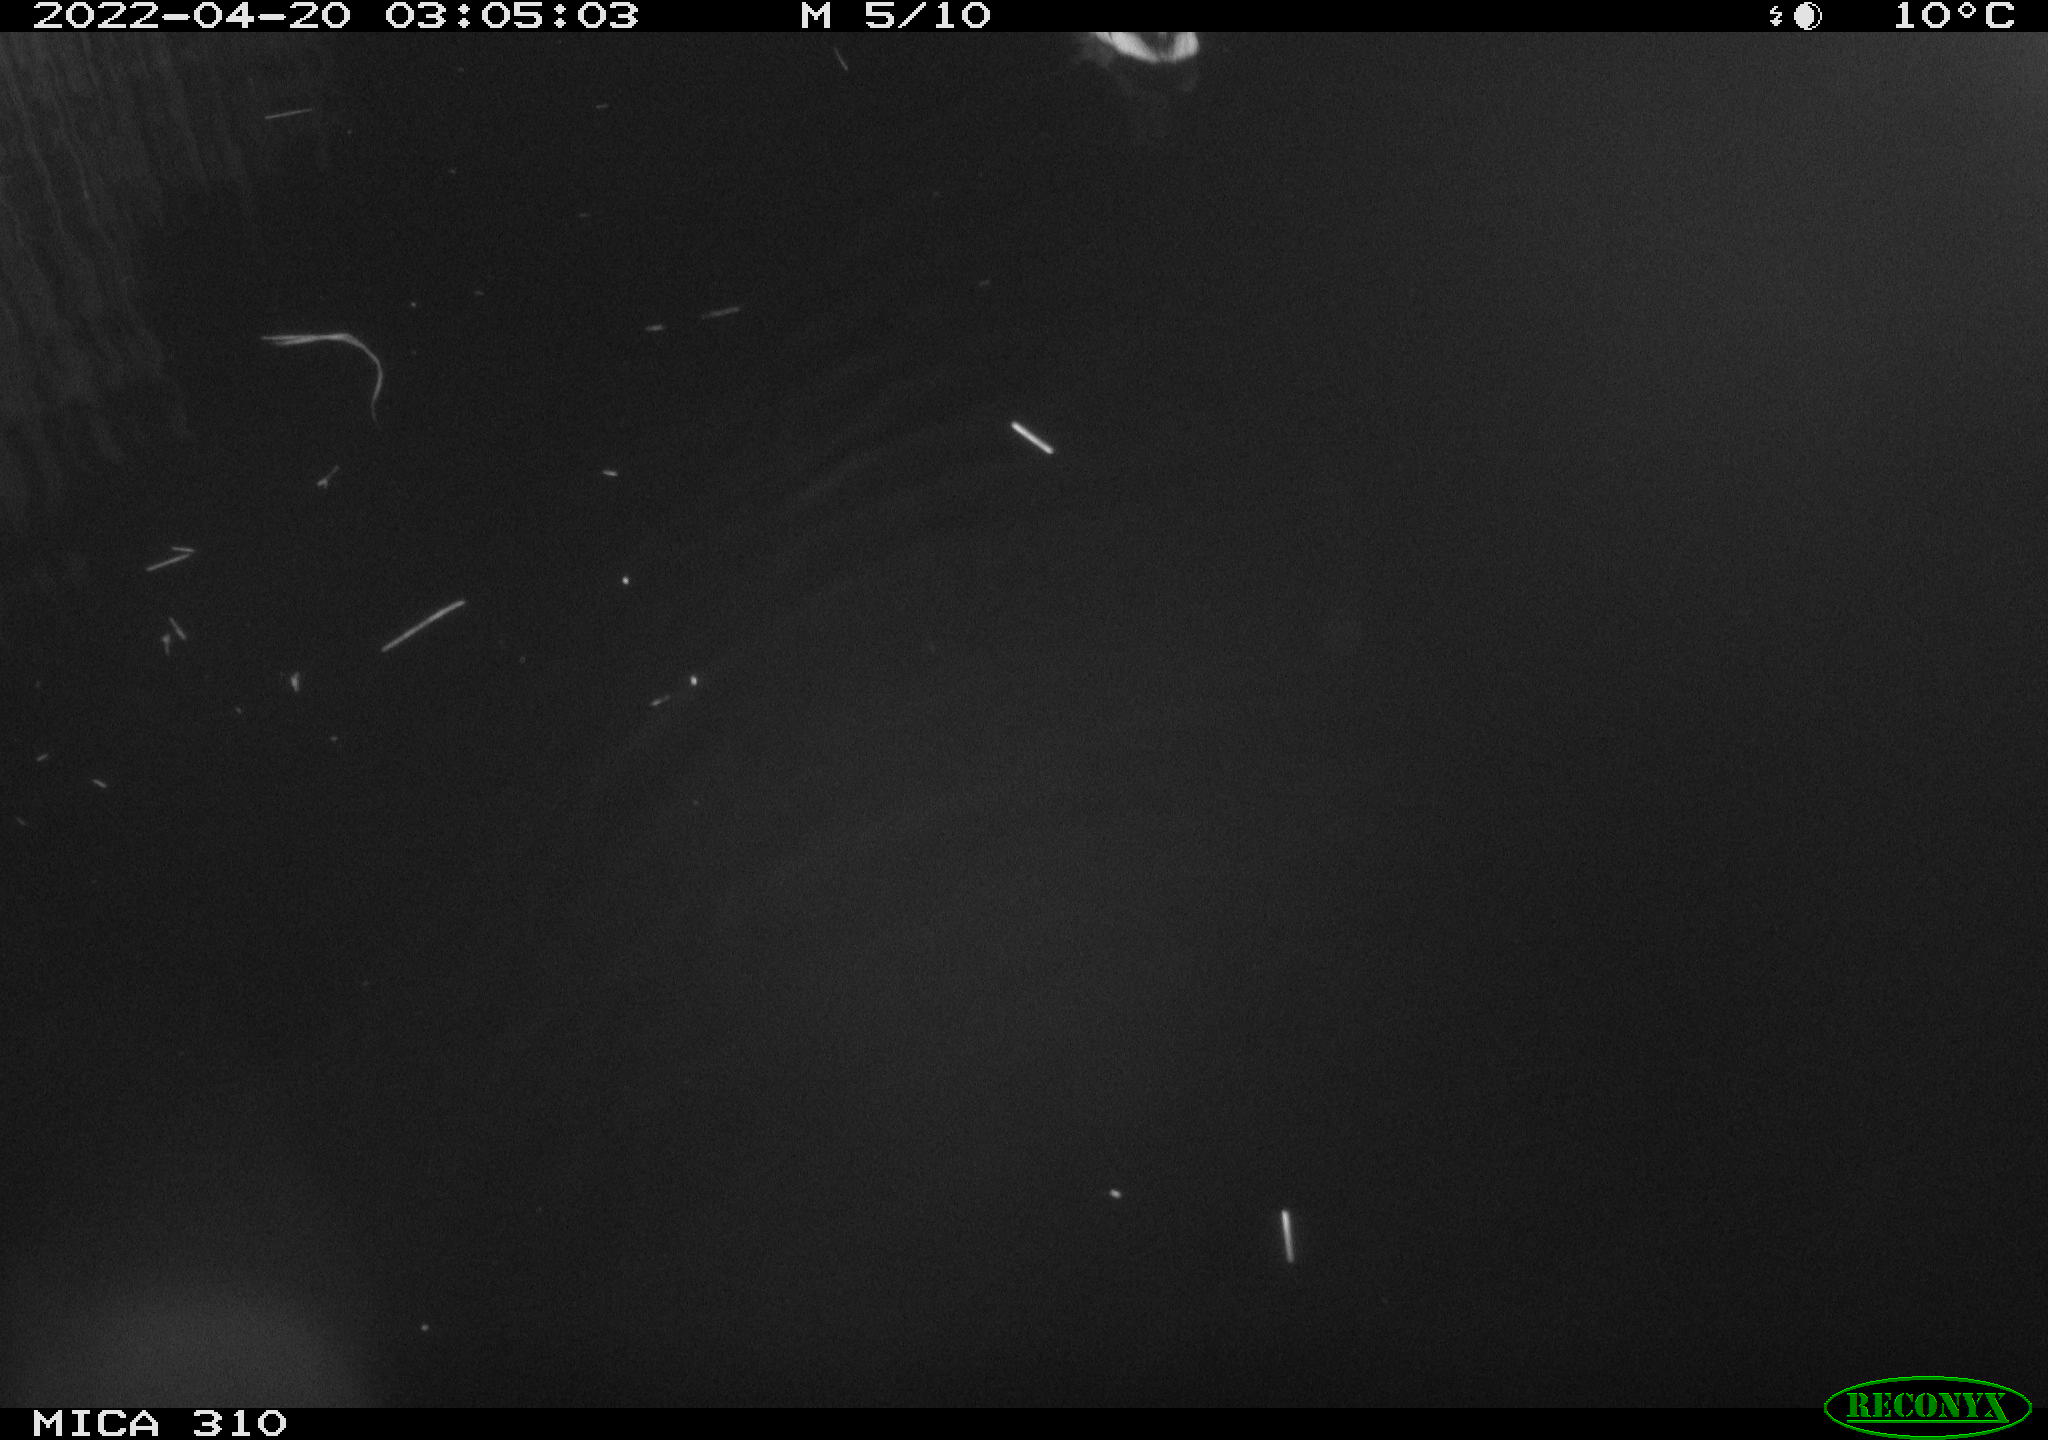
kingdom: Animalia
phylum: Chordata
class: Aves
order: Anseriformes
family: Anatidae
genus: Anas
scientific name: Anas platyrhynchos
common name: Mallard
